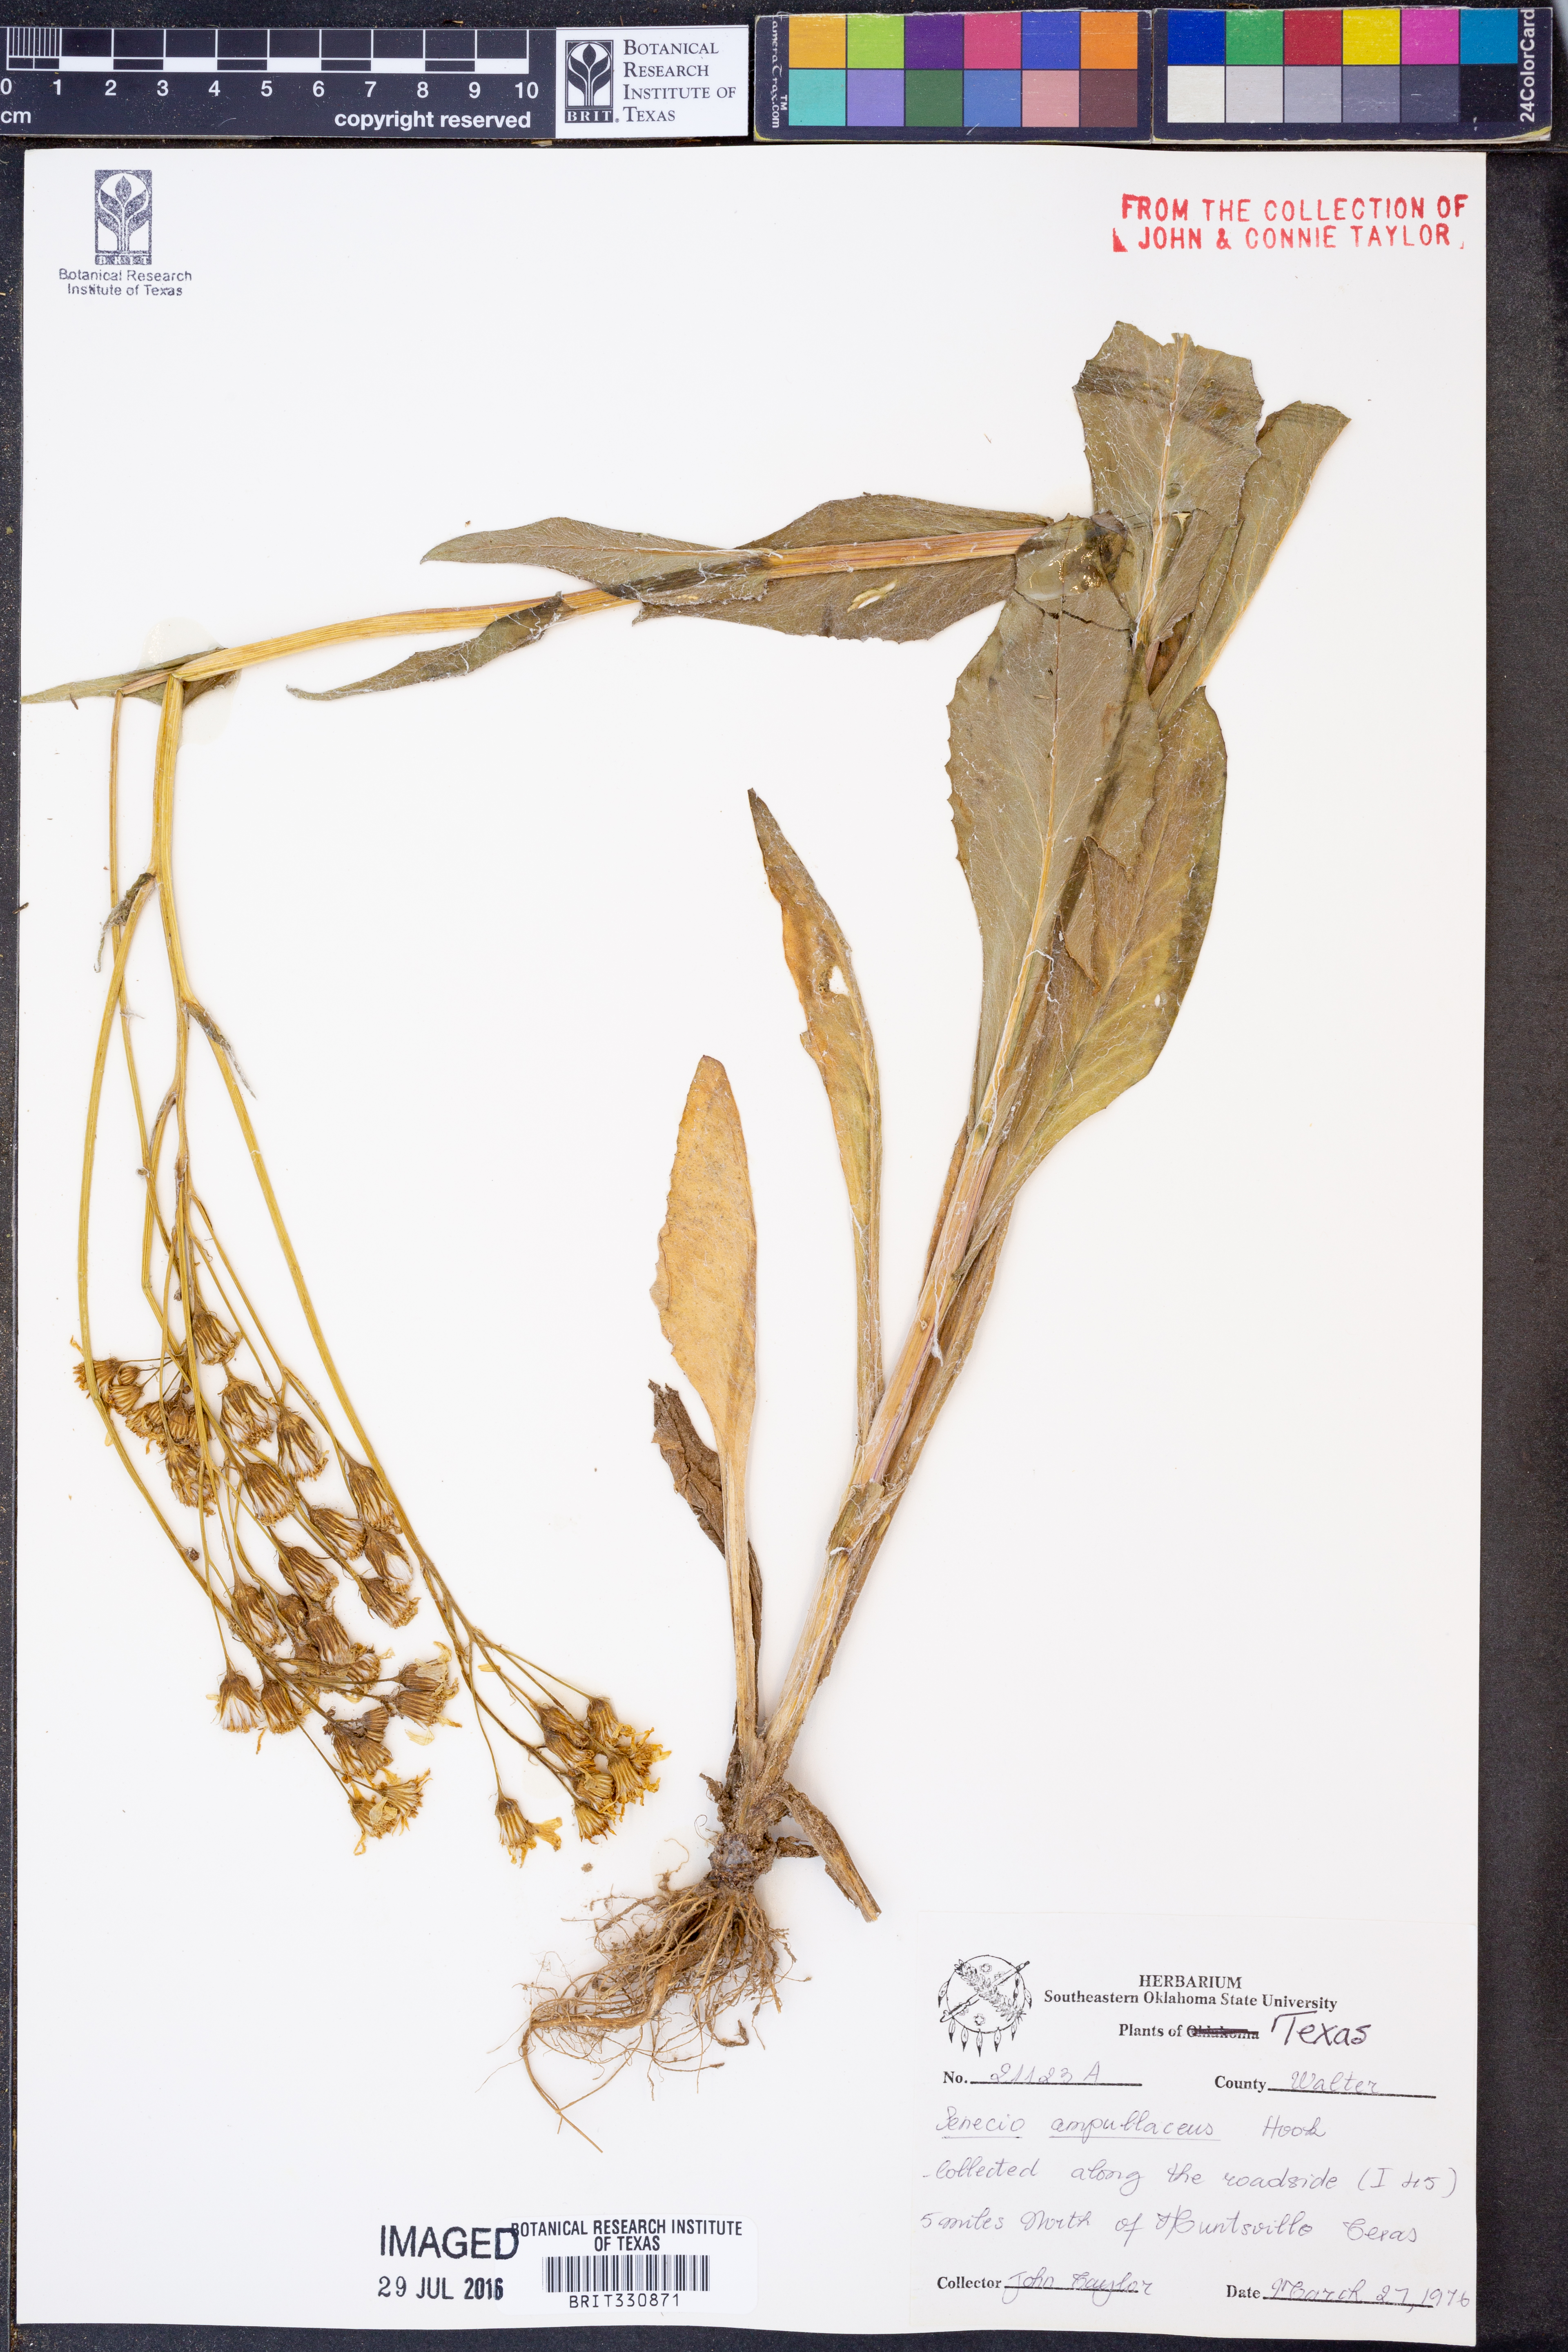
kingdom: Plantae
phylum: Tracheophyta
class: Magnoliopsida
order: Asterales
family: Asteraceae
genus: Senecio
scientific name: Senecio ampullaceus
